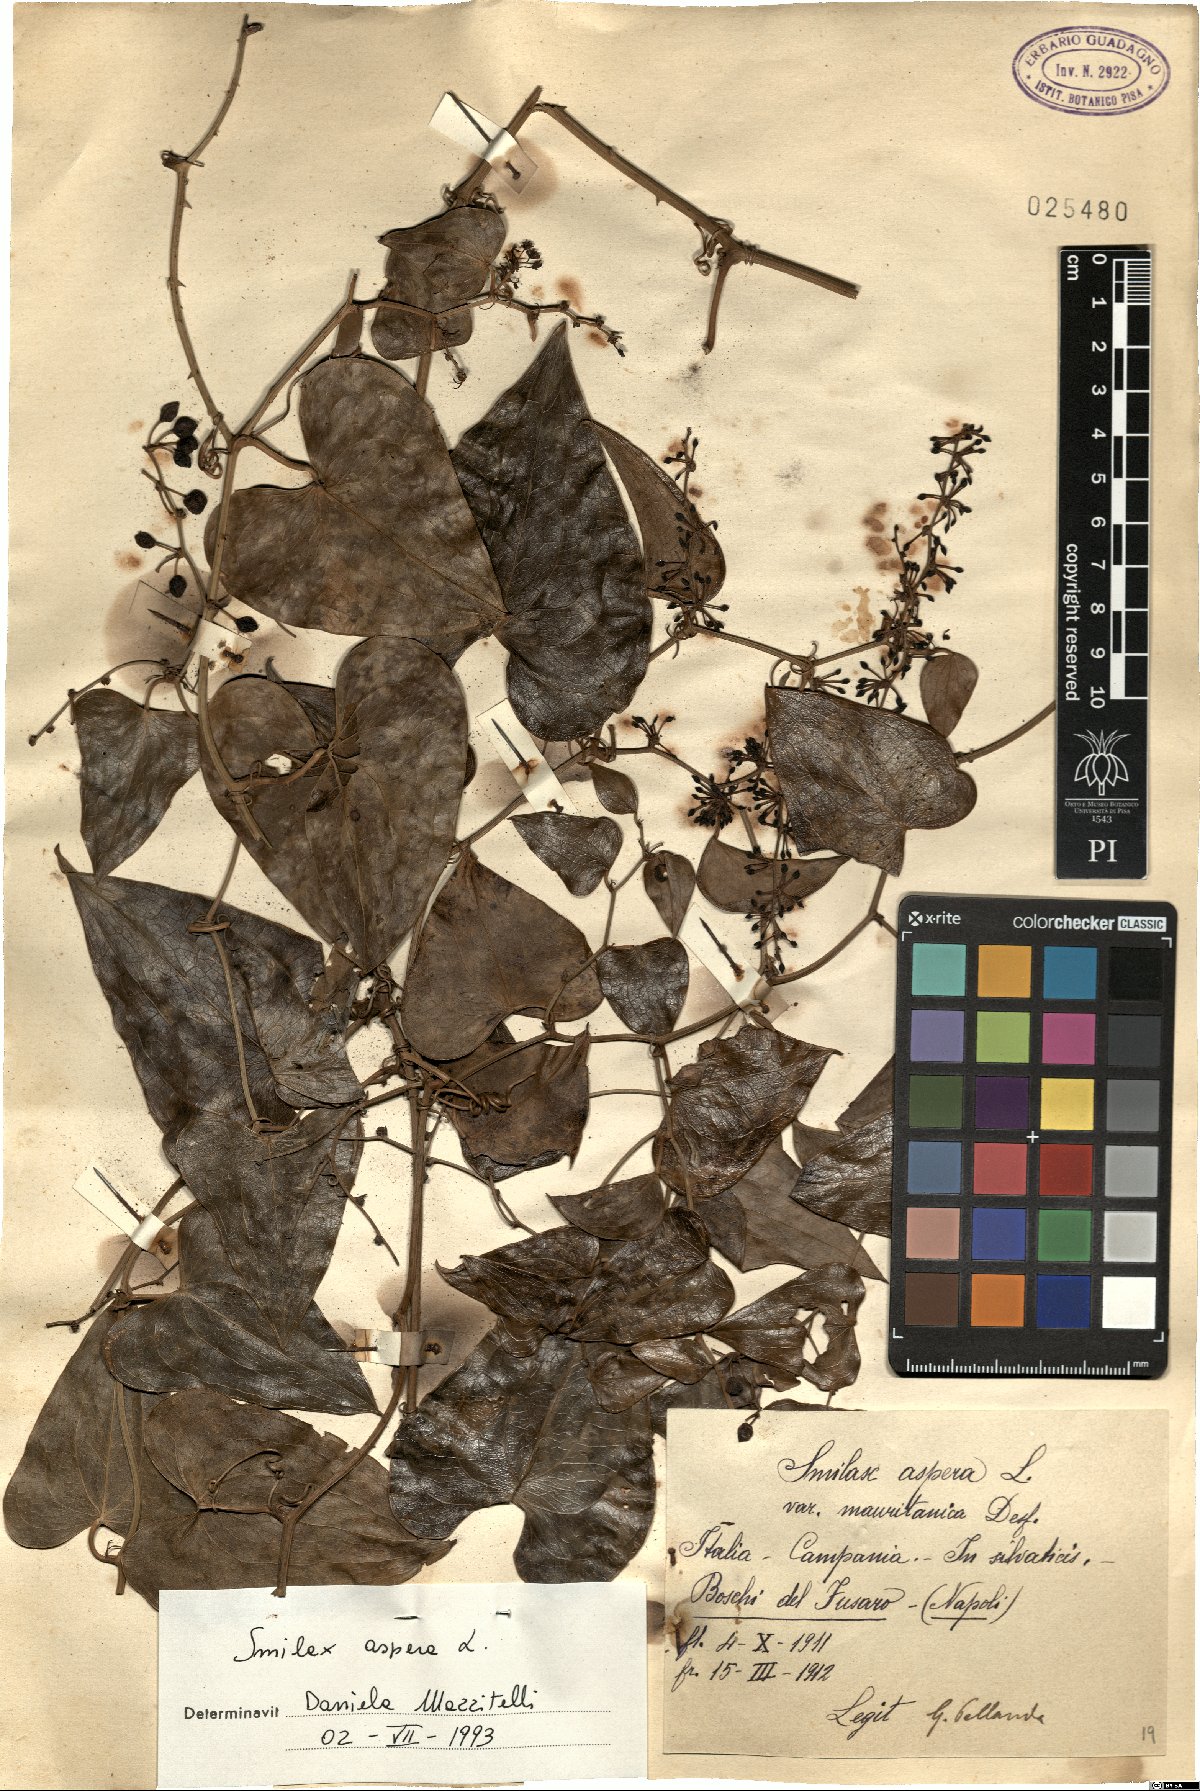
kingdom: Plantae
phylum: Tracheophyta
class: Liliopsida
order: Liliales
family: Smilacaceae
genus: Smilax
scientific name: Smilax aspera
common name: Common smilax
